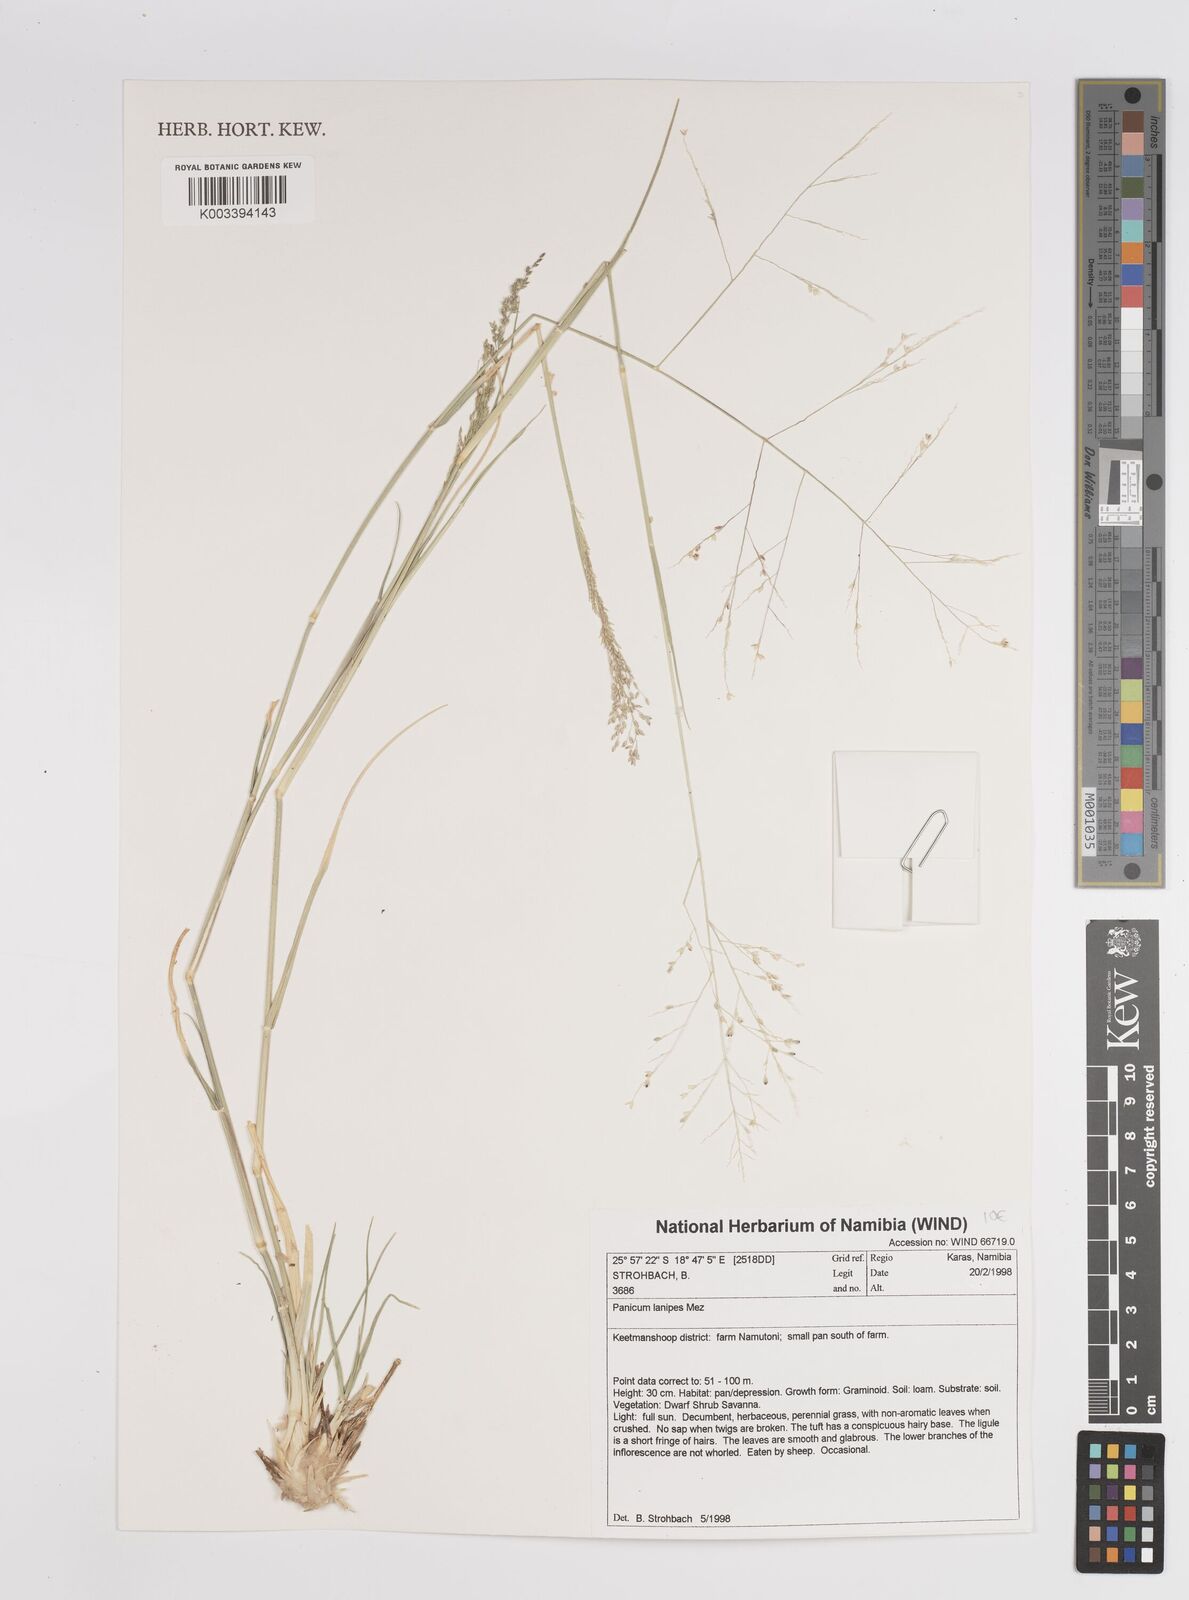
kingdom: Plantae
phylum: Tracheophyta
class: Liliopsida
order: Poales
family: Poaceae
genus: Panicum
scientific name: Panicum lanipes
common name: Wolvoet panicum
